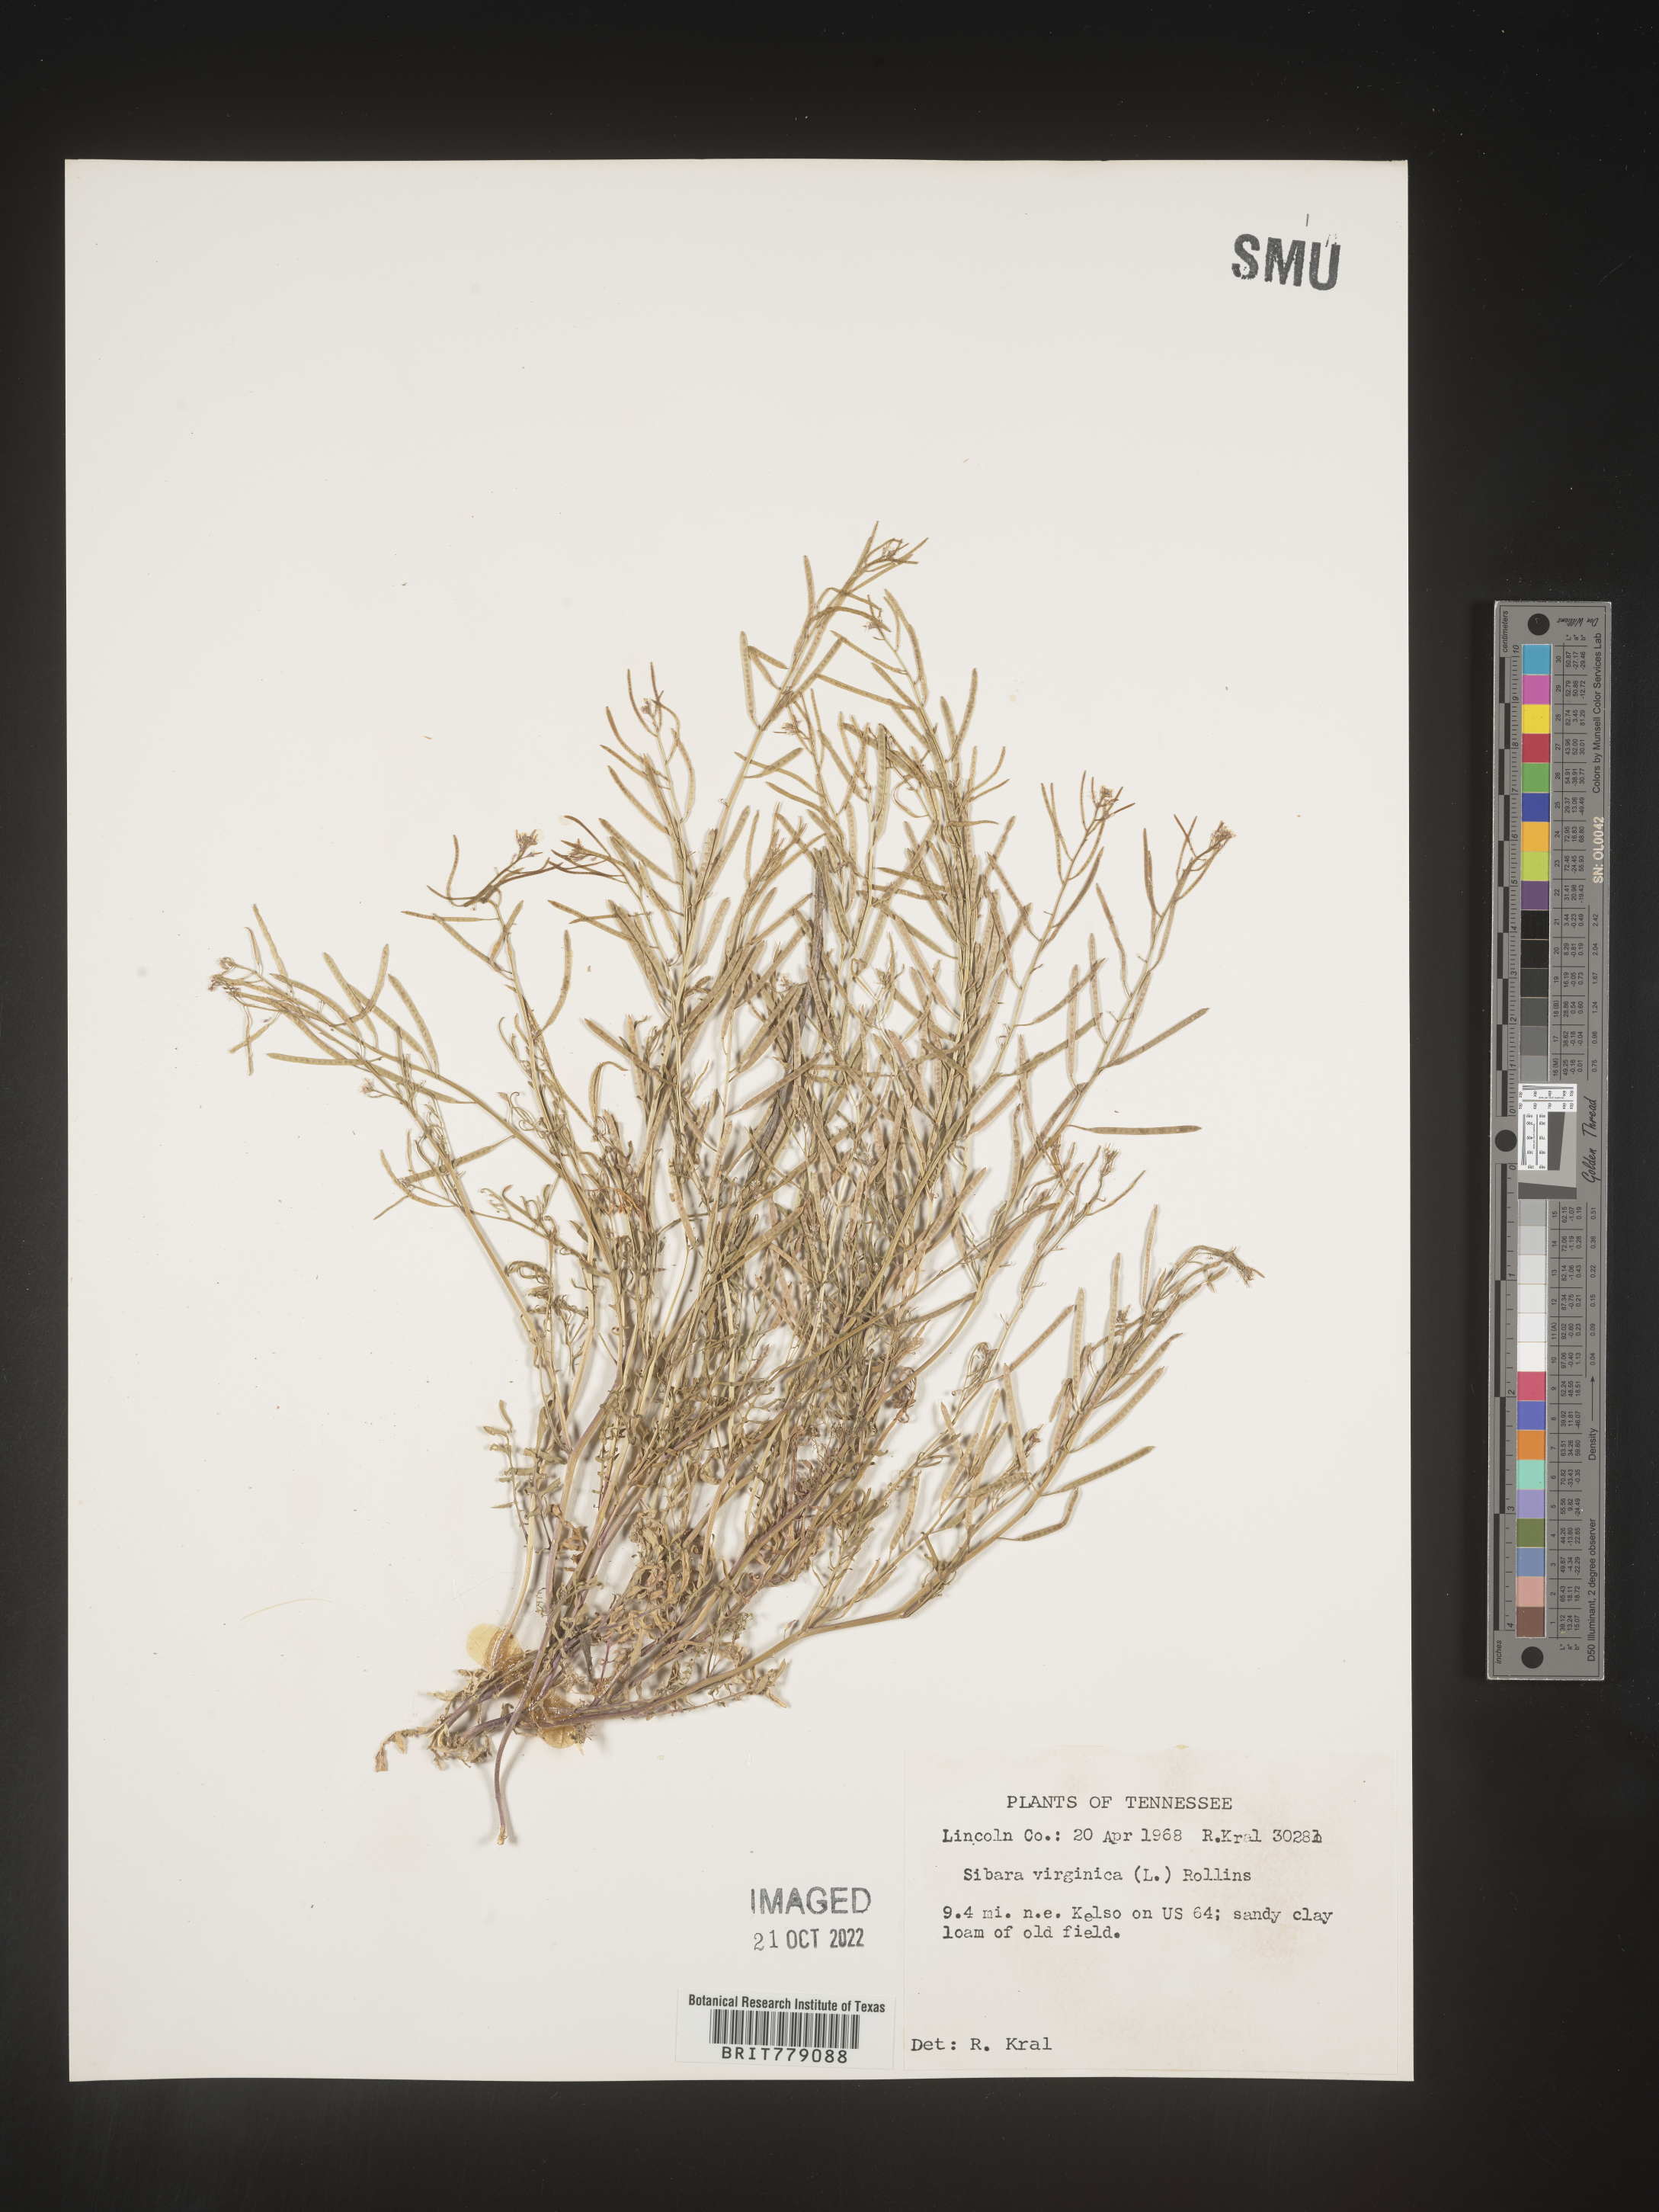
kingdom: Plantae
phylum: Tracheophyta
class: Magnoliopsida
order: Brassicales
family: Brassicaceae
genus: Sibara
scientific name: Sibara
